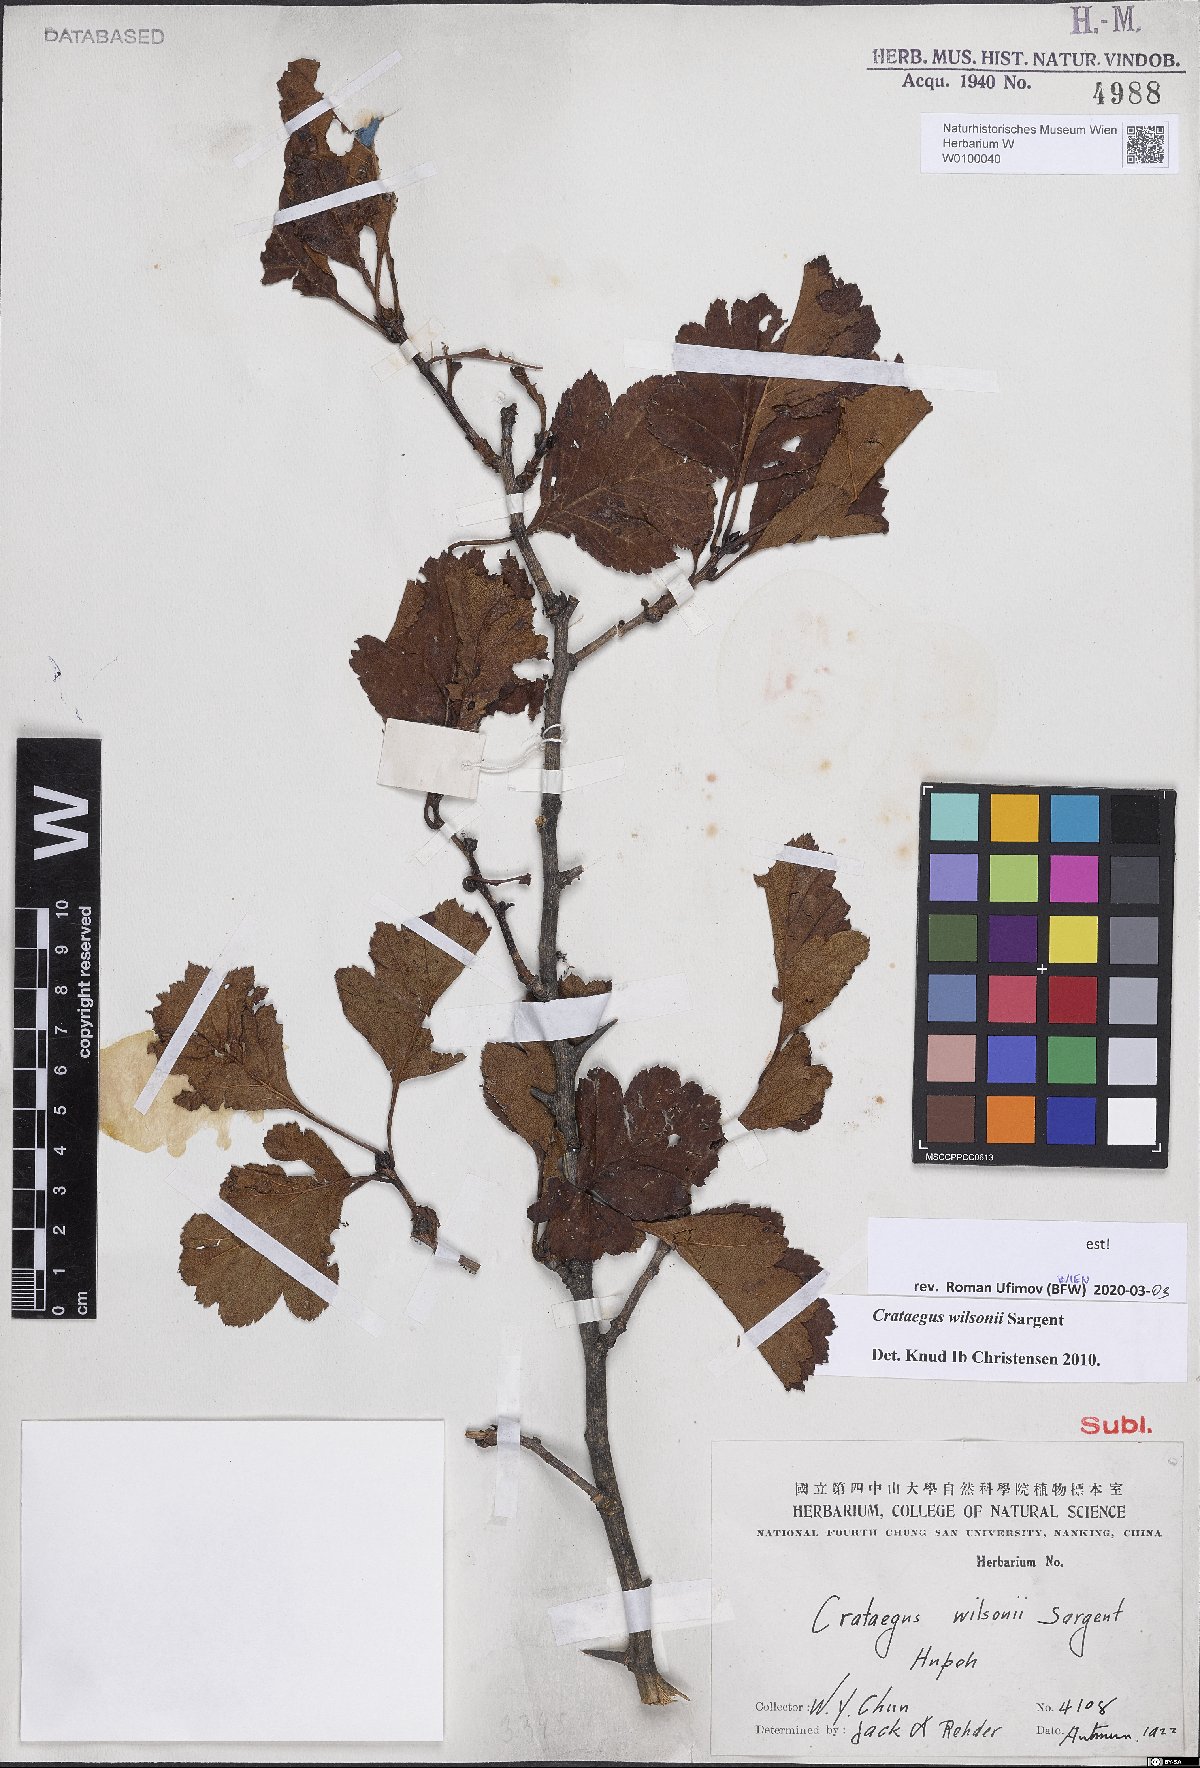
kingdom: Plantae
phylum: Tracheophyta
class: Magnoliopsida
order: Rosales
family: Rosaceae
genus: Crataegus
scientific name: Crataegus wilsonii
